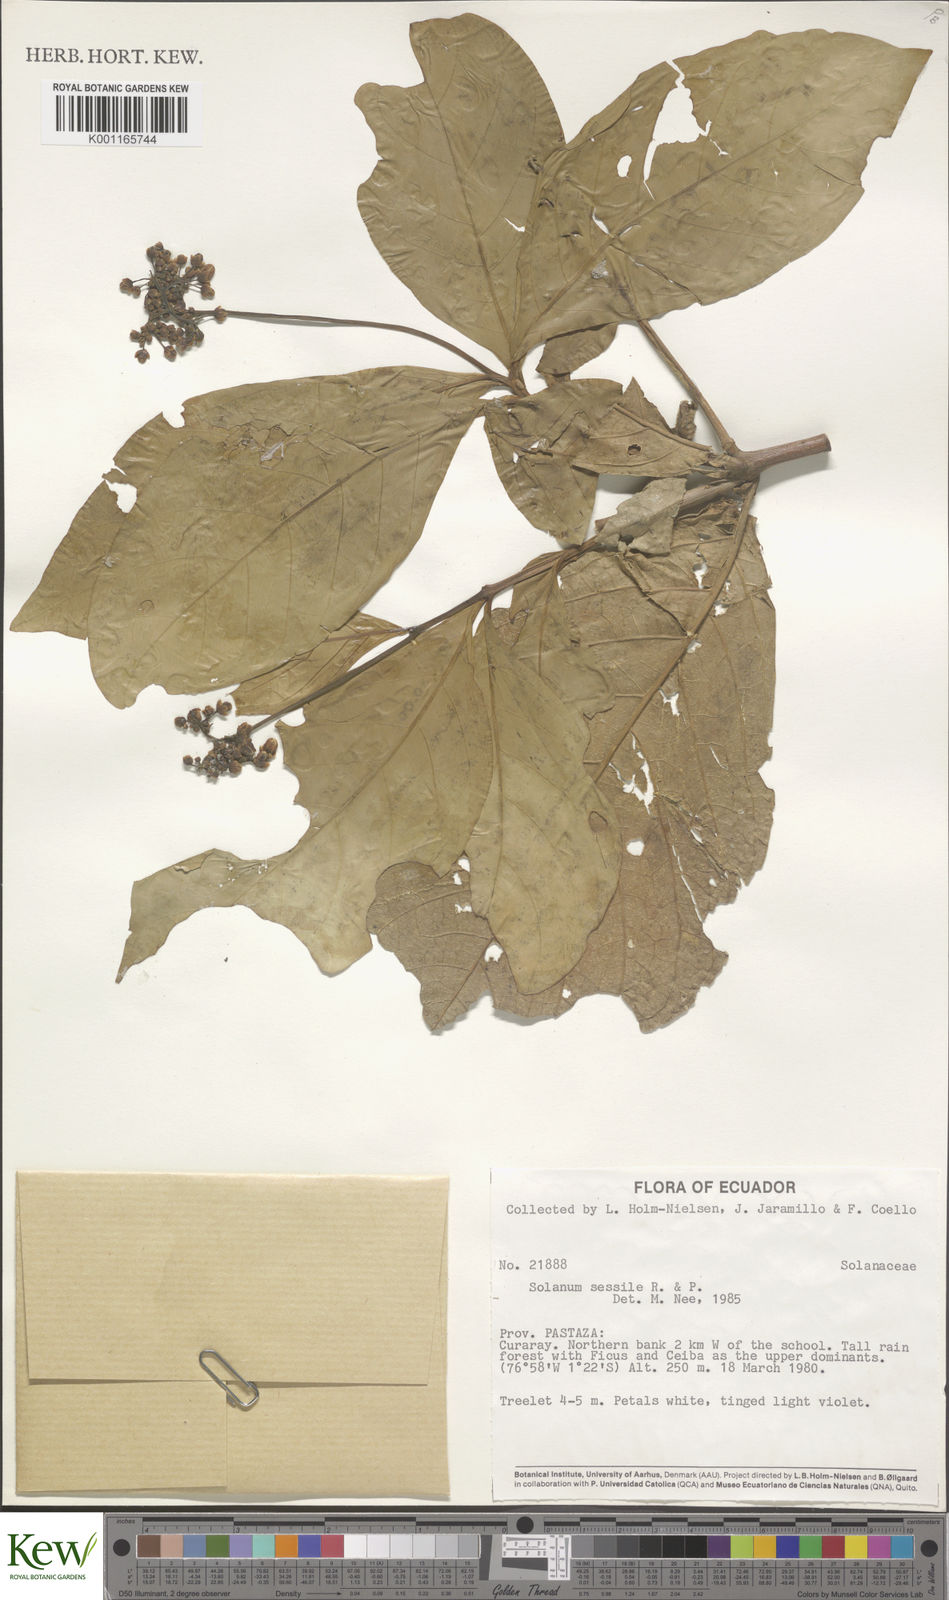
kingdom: Plantae
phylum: Tracheophyta
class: Magnoliopsida
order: Solanales
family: Solanaceae
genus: Solanum
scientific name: Solanum sessile
